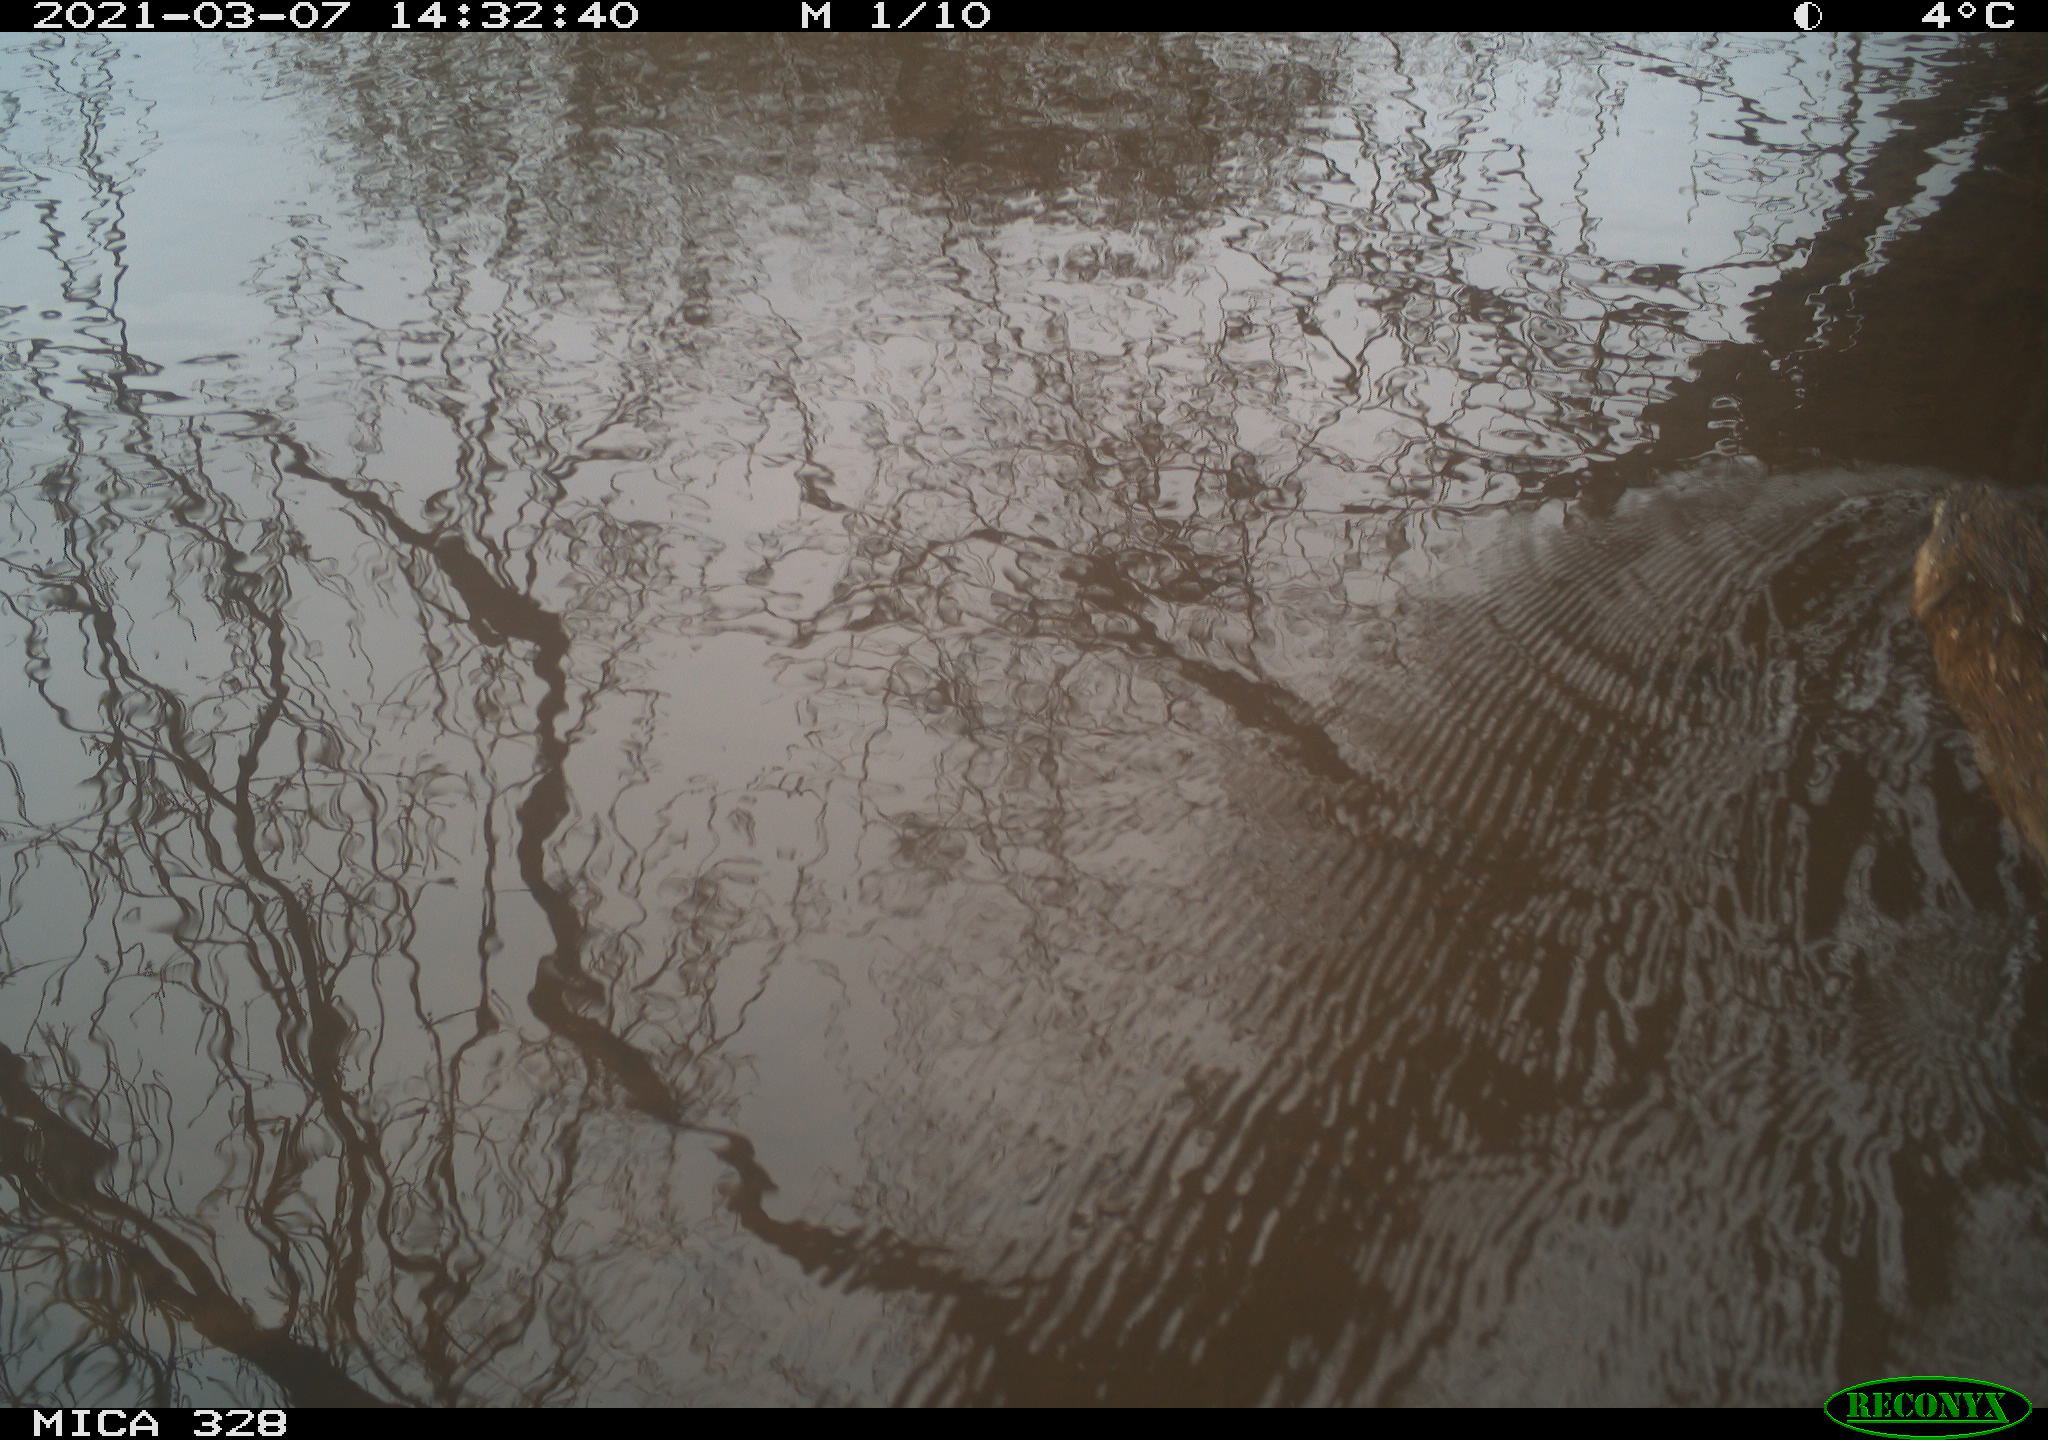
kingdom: Animalia
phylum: Chordata
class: Mammalia
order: Rodentia
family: Cricetidae
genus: Ondatra
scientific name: Ondatra zibethicus
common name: Muskrat
